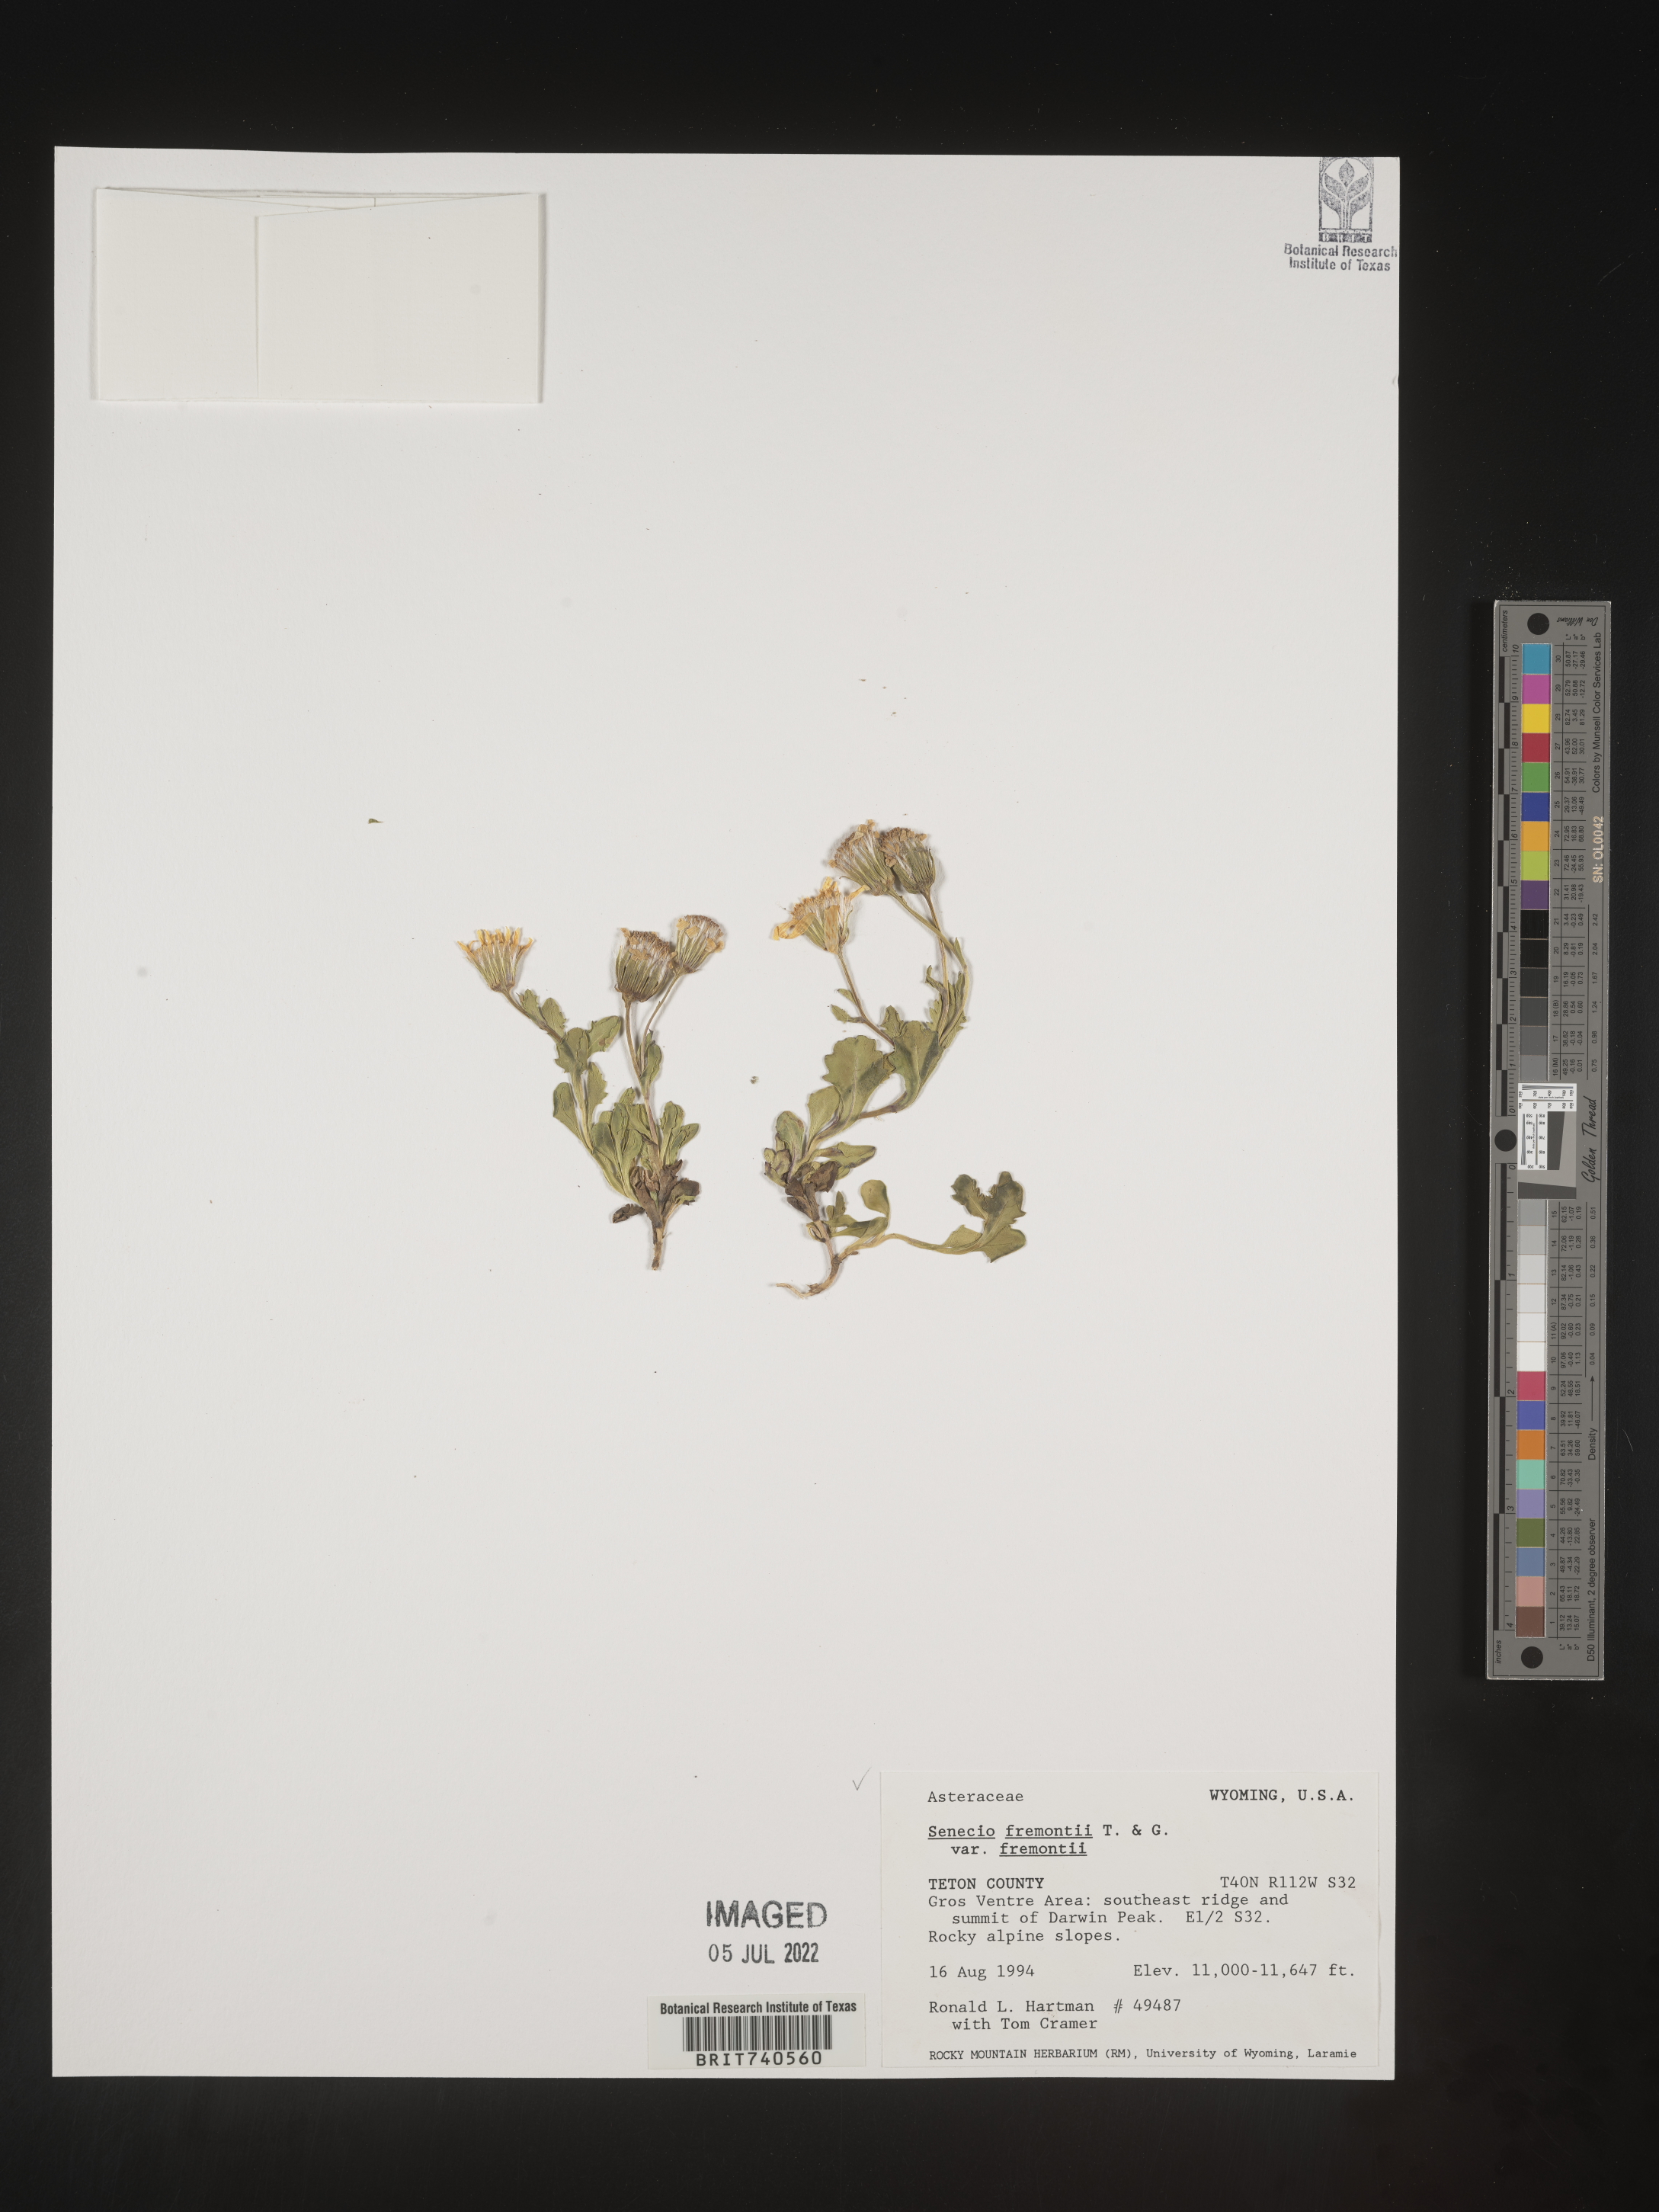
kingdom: Plantae
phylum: Tracheophyta
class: Magnoliopsida
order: Asterales
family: Asteraceae
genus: Senecio
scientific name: Senecio fremontii
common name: Fremont's groundsel
